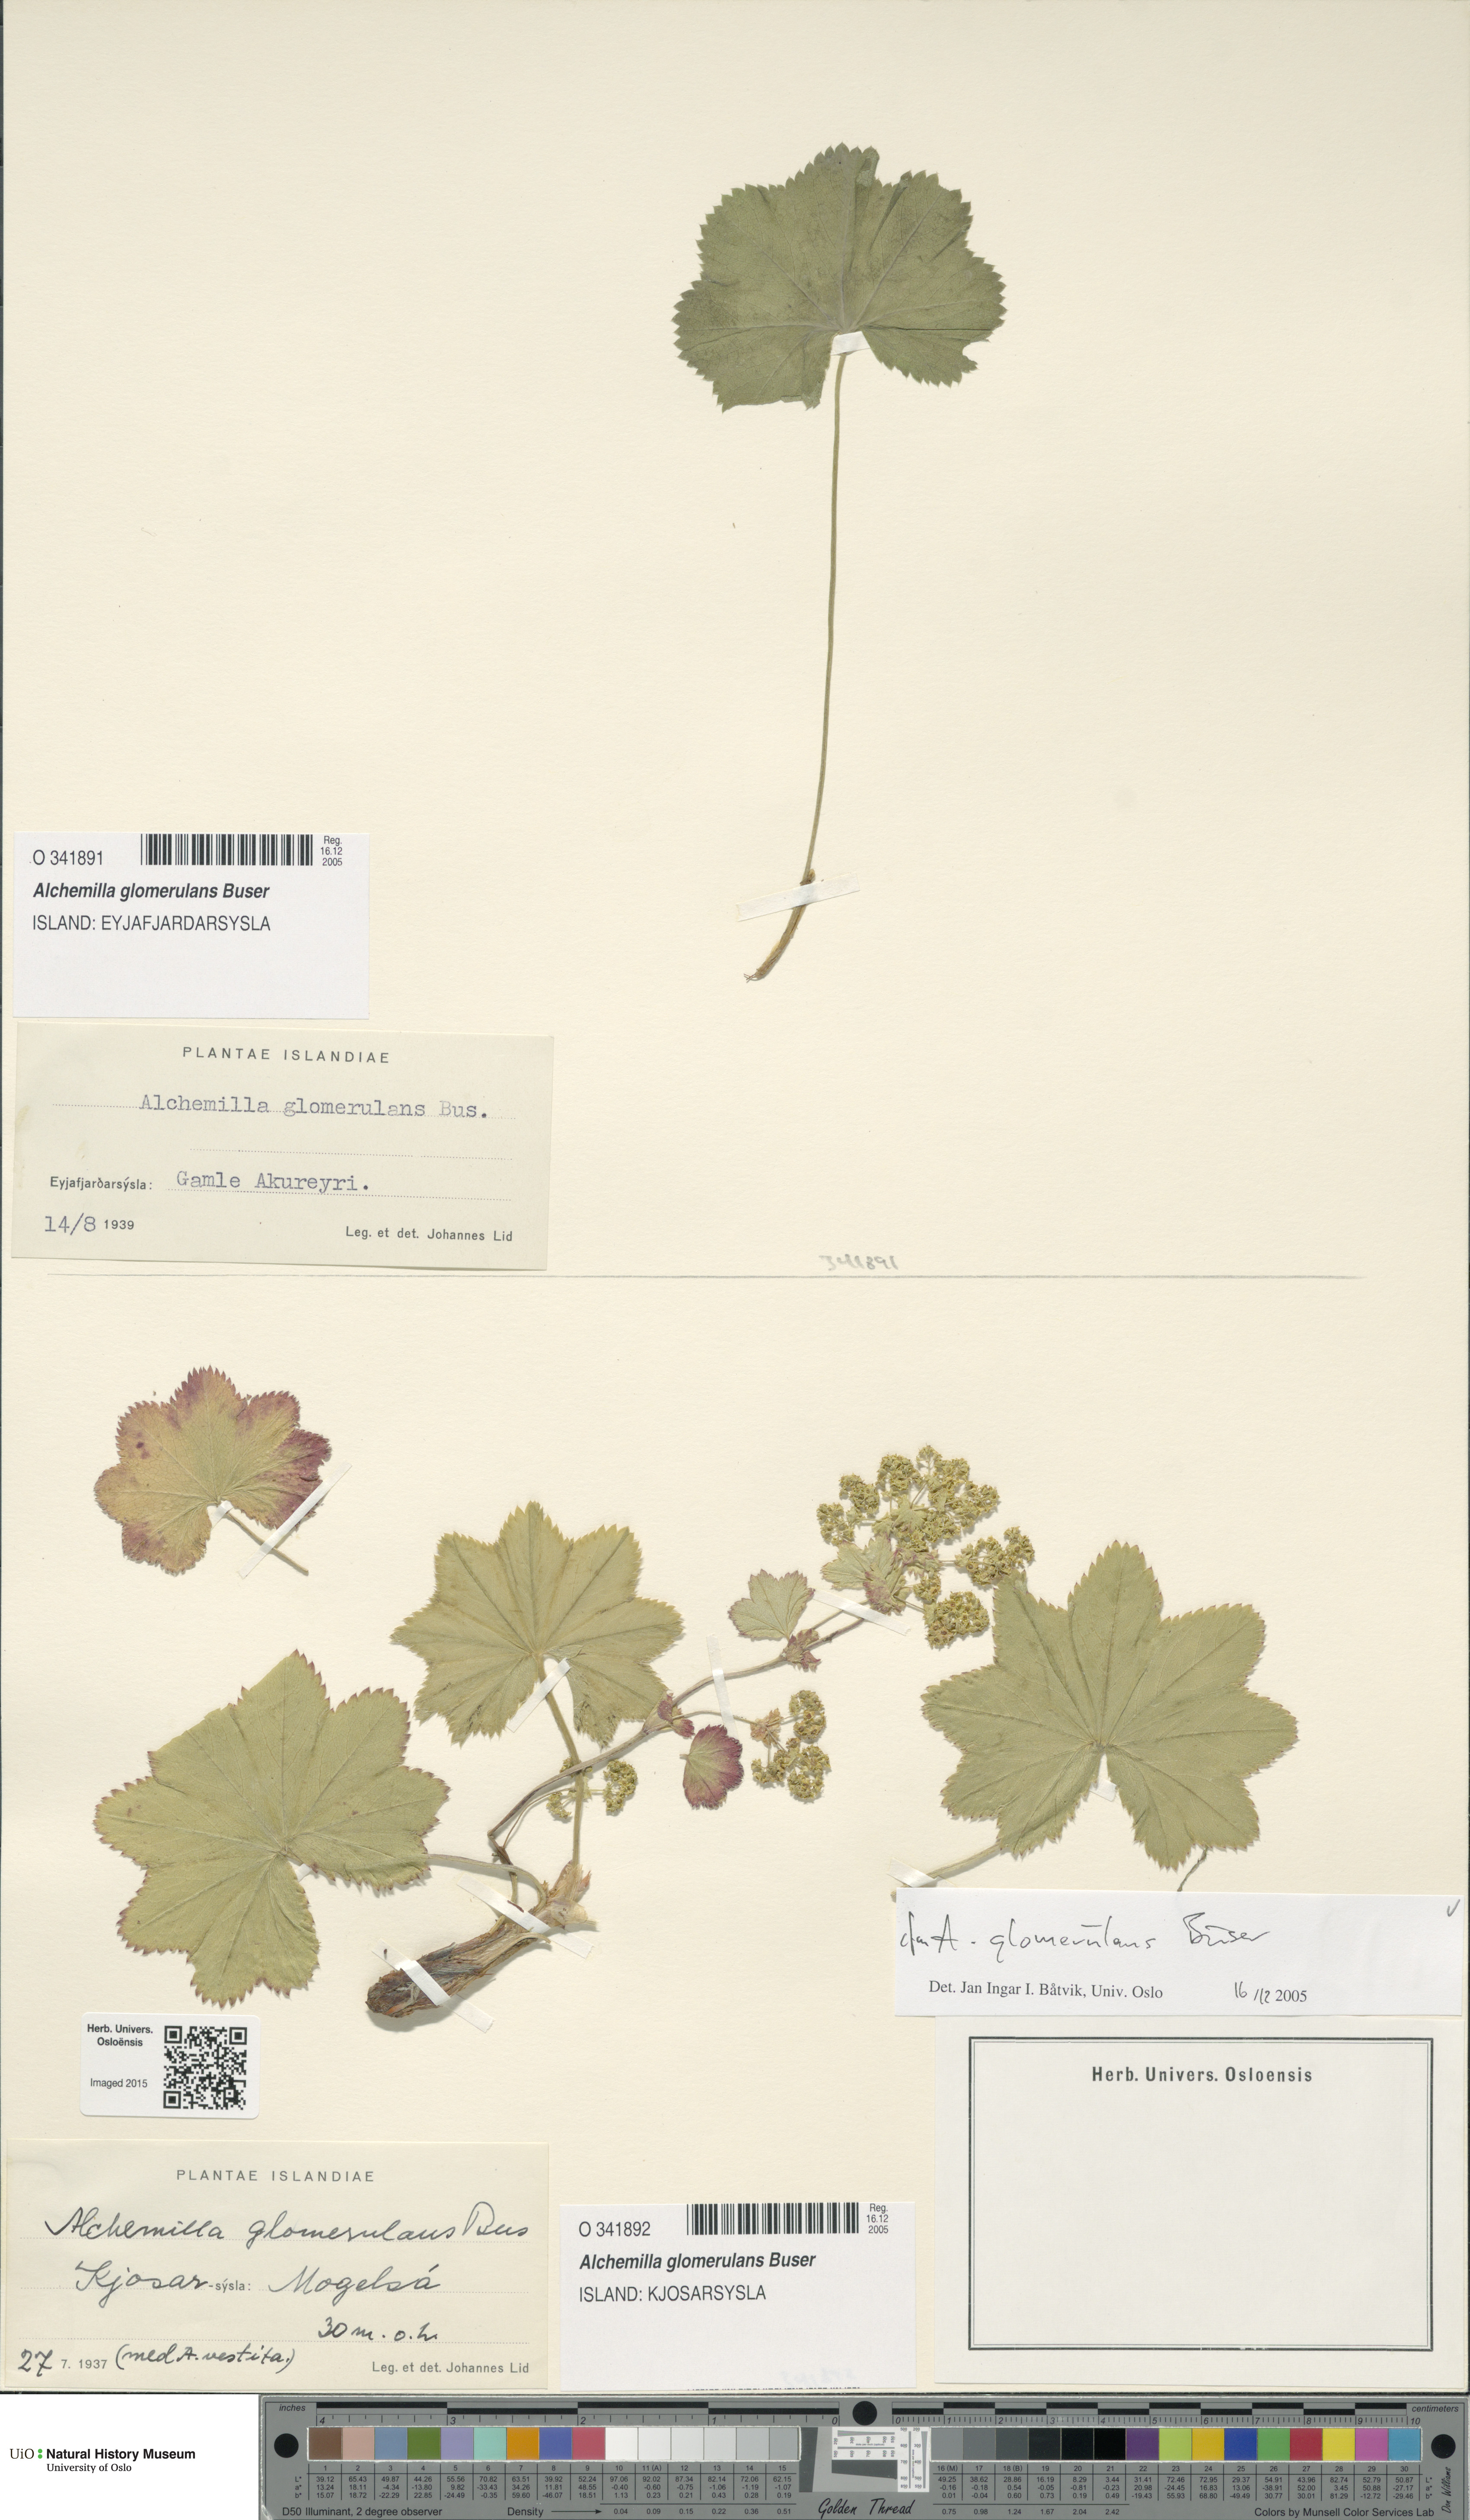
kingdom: Plantae
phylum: Tracheophyta
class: Magnoliopsida
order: Rosales
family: Rosaceae
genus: Alchemilla
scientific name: Alchemilla glomerulans
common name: Clustered lady's mantle
